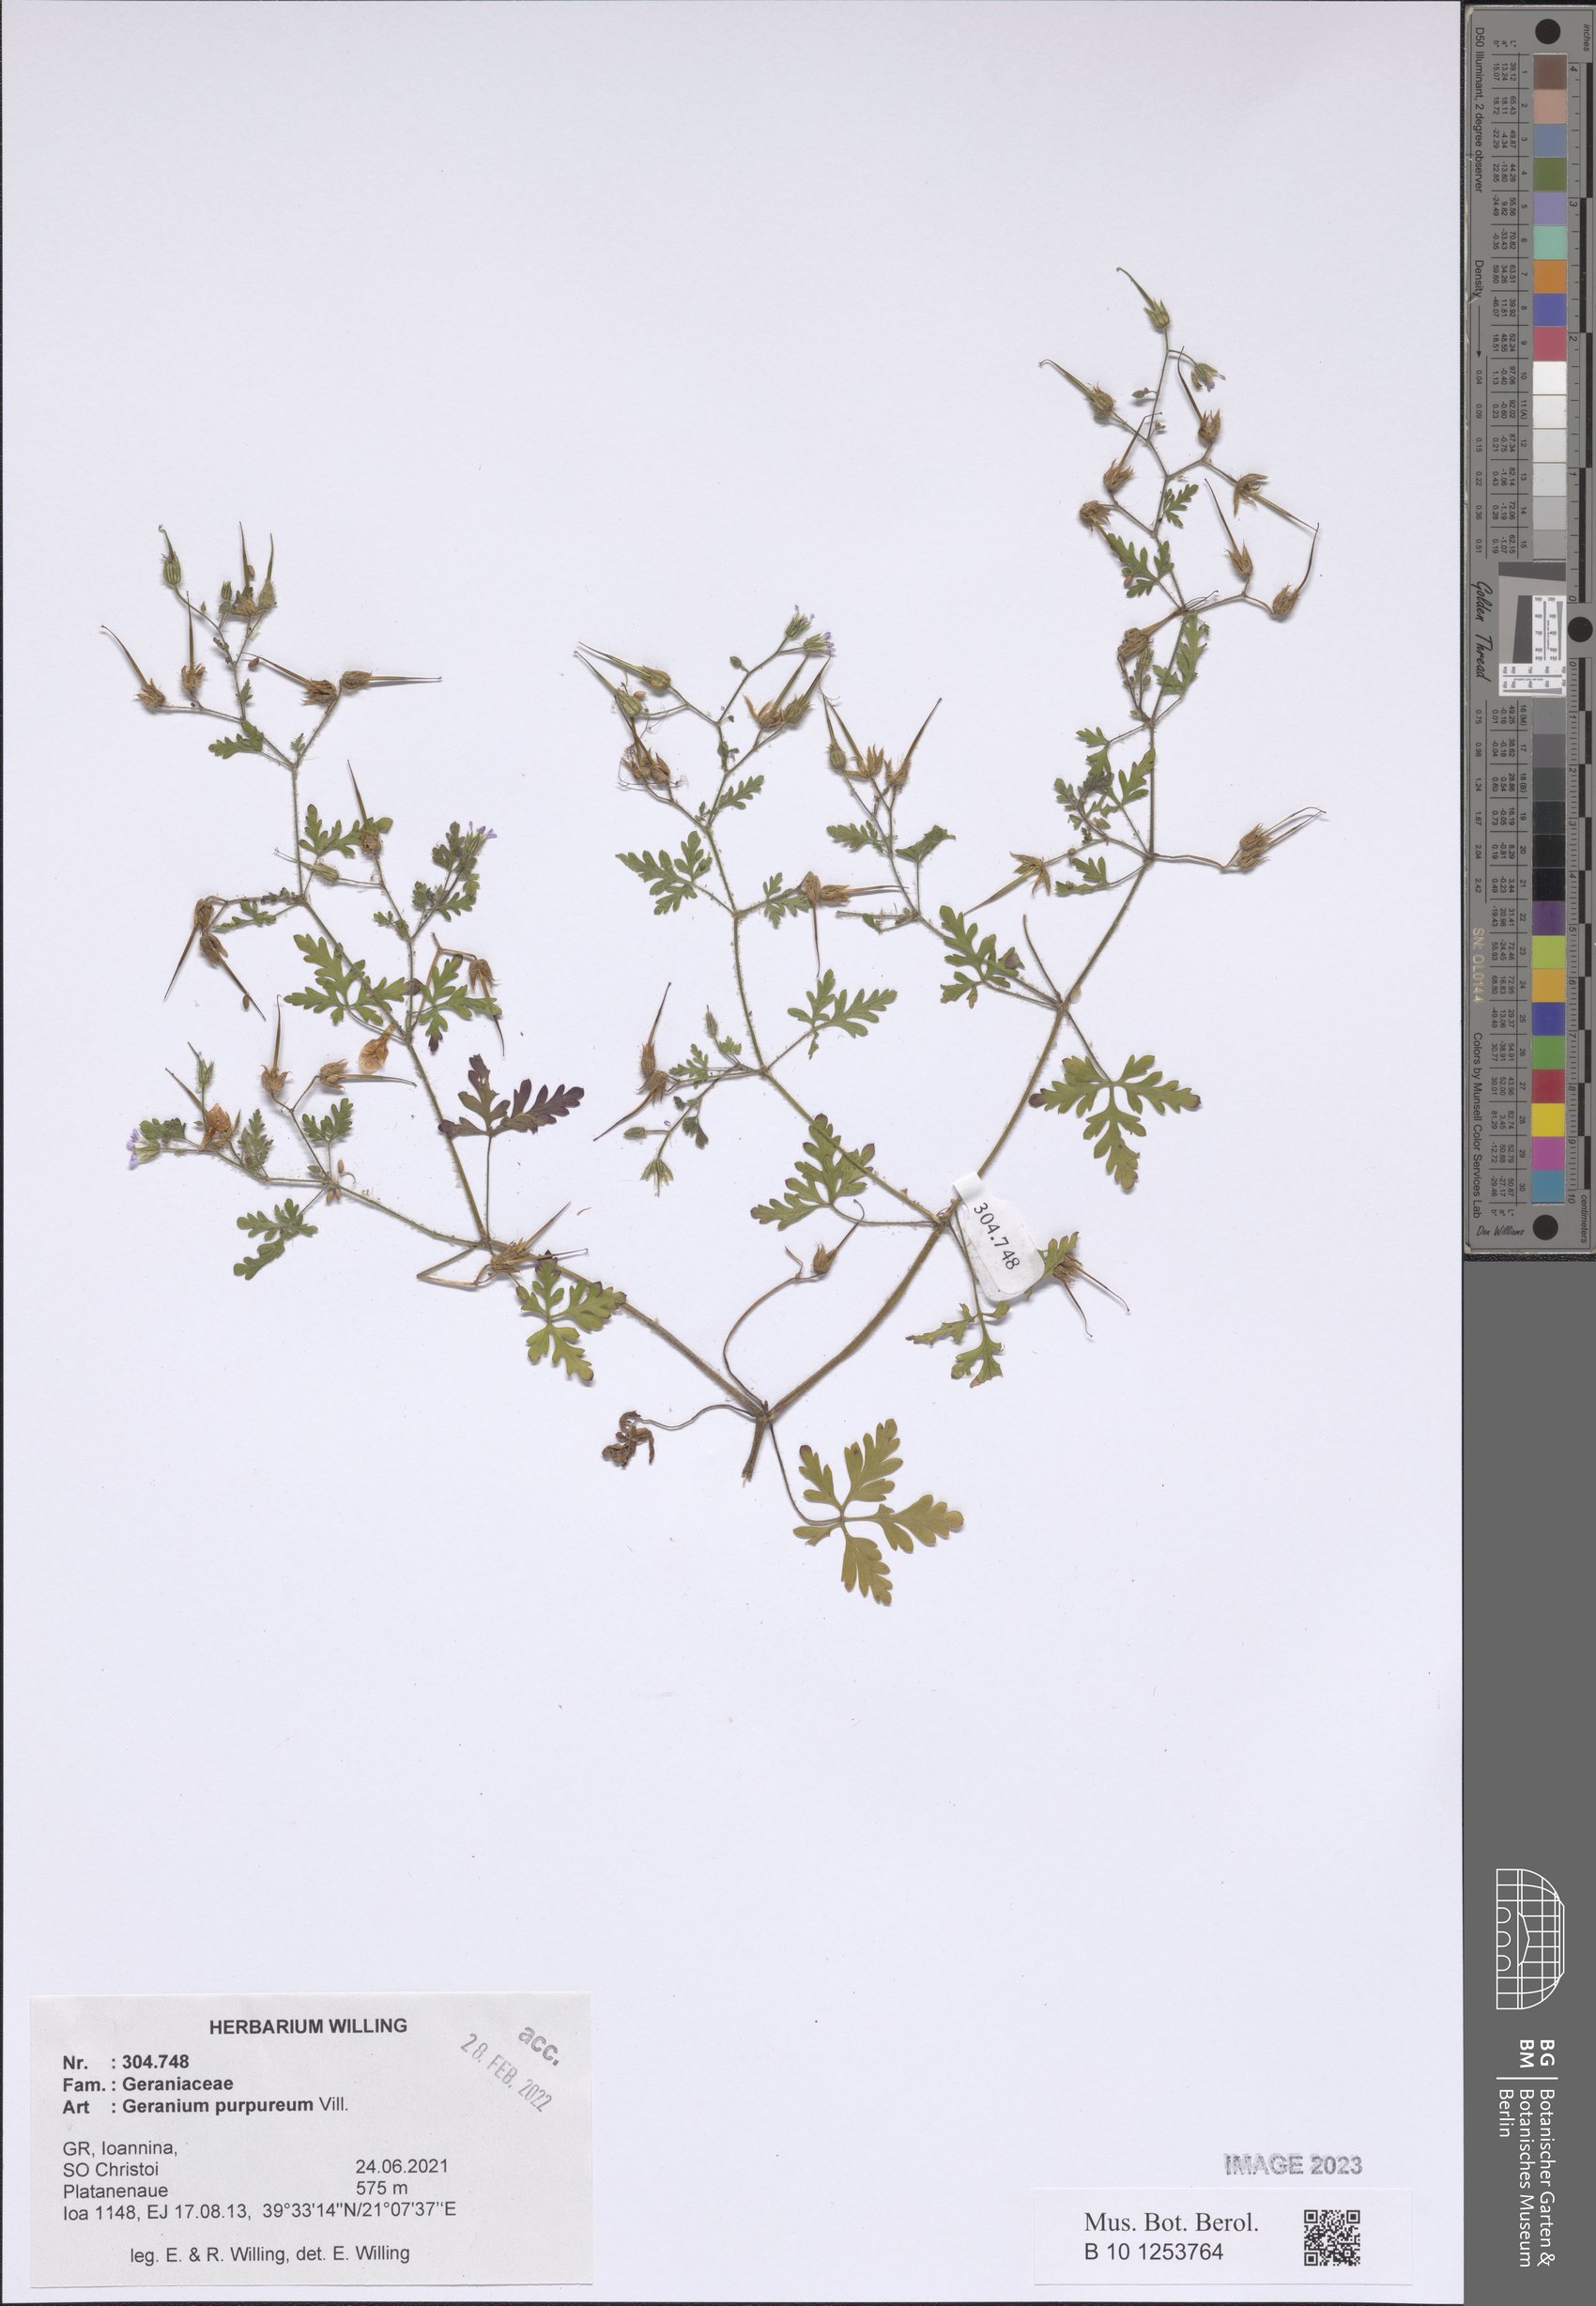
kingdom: Plantae
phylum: Tracheophyta
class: Magnoliopsida
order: Geraniales
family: Geraniaceae
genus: Geranium
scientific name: Geranium purpureum
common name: Little-robin
